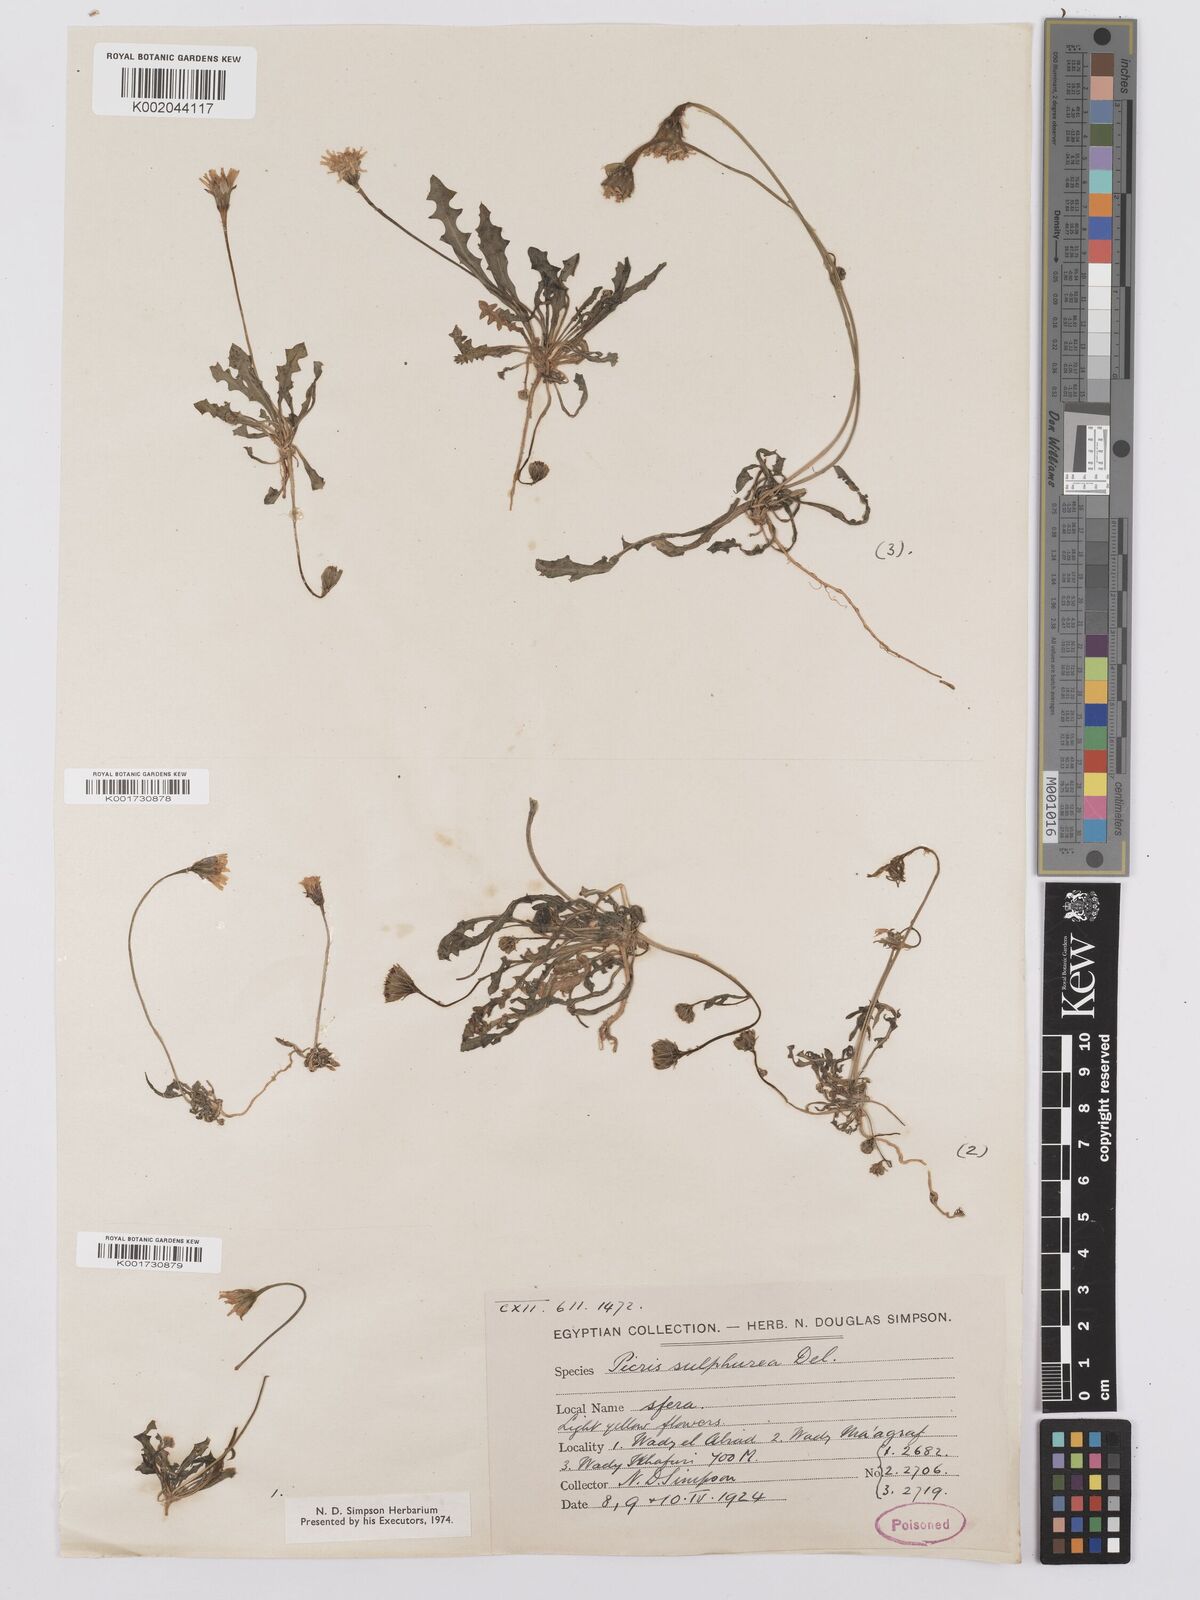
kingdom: Plantae
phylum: Tracheophyta
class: Magnoliopsida
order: Asterales
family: Asteraceae
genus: Picris
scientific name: Picris sulphurea
